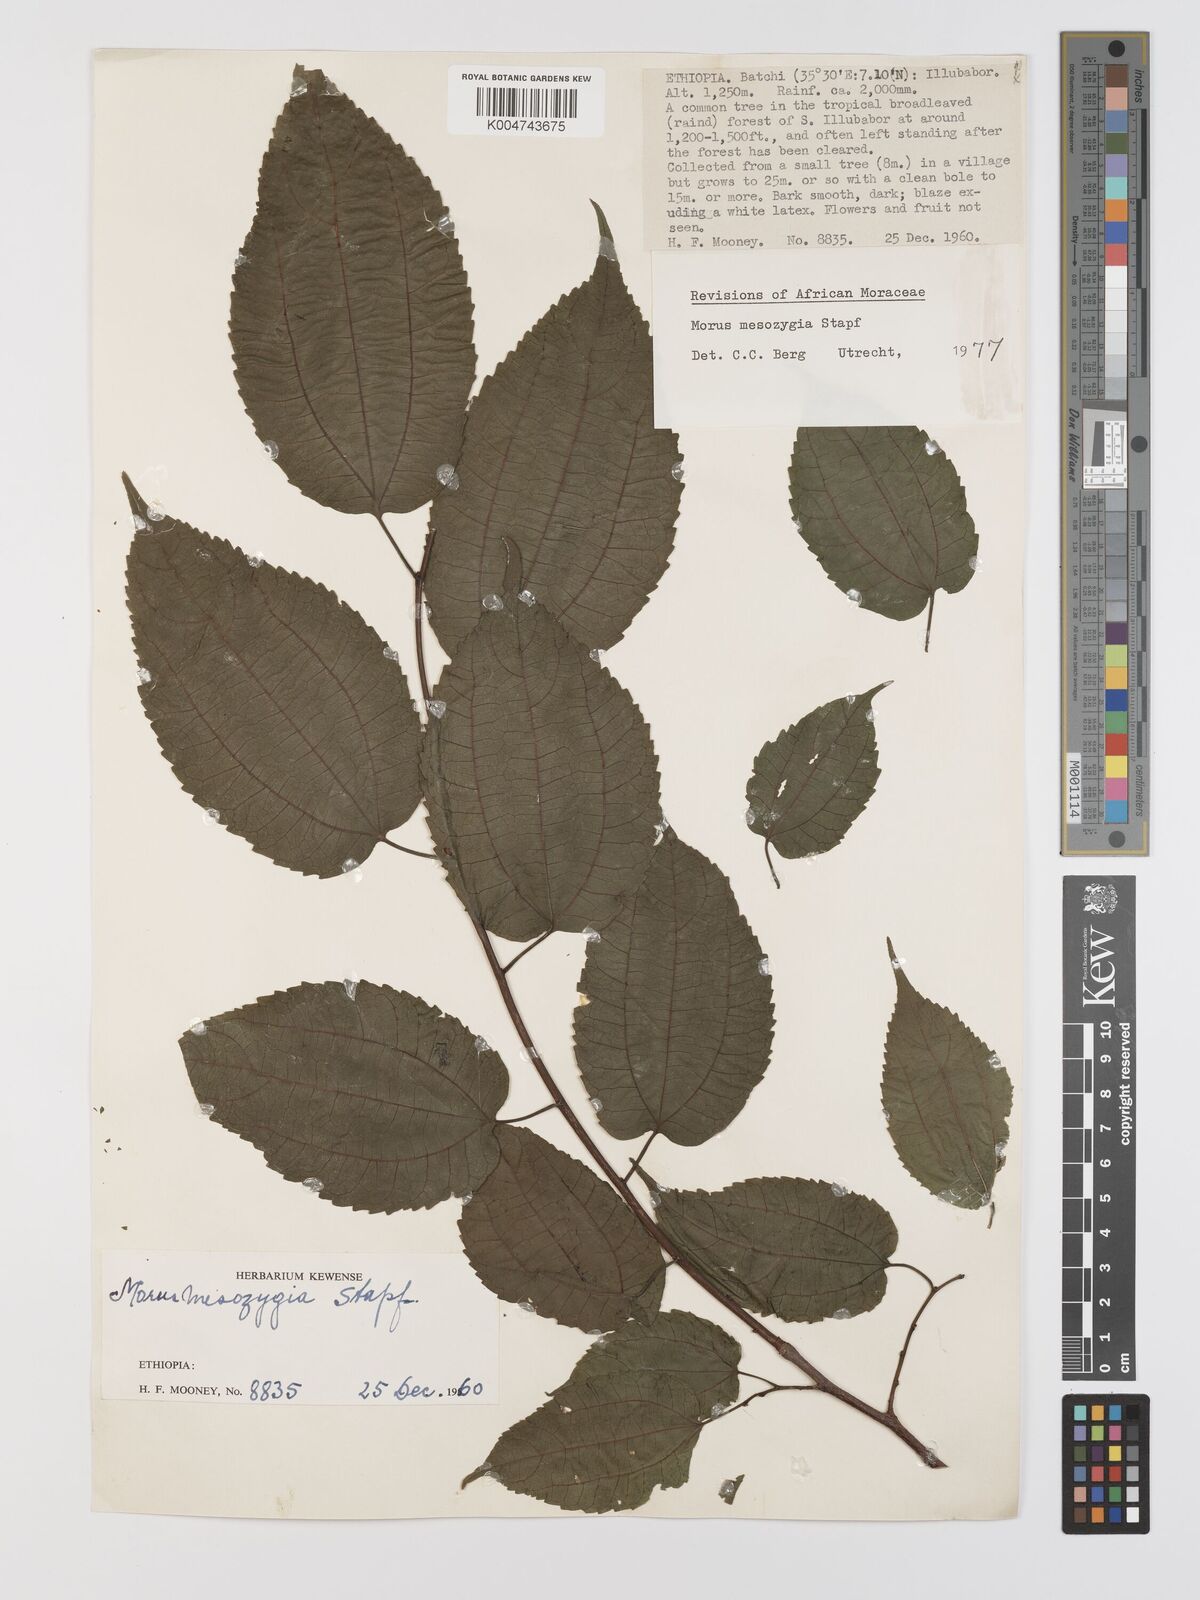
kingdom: Plantae
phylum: Tracheophyta
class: Magnoliopsida
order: Rosales
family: Moraceae
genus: Afromorus
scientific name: Afromorus mesozygia
